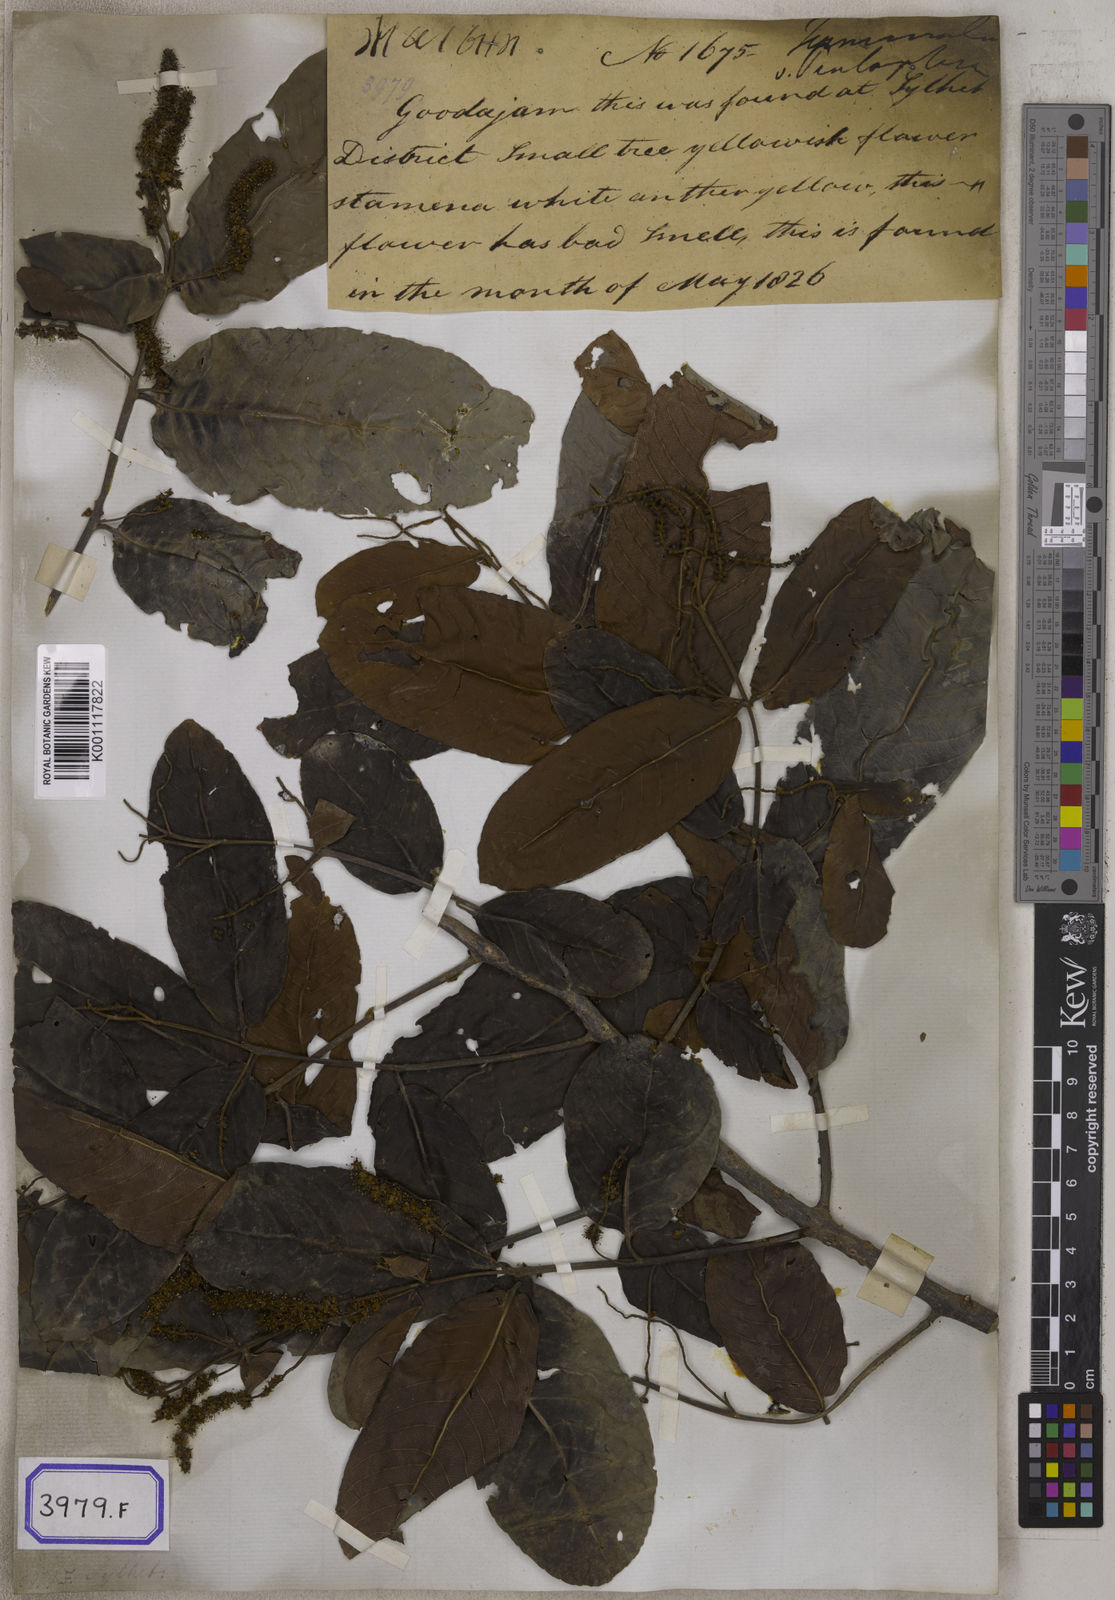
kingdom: Plantae
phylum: Tracheophyta
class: Magnoliopsida
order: Myrtales
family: Combretaceae
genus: Terminalia
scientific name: Terminalia arjuna
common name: Arjun
